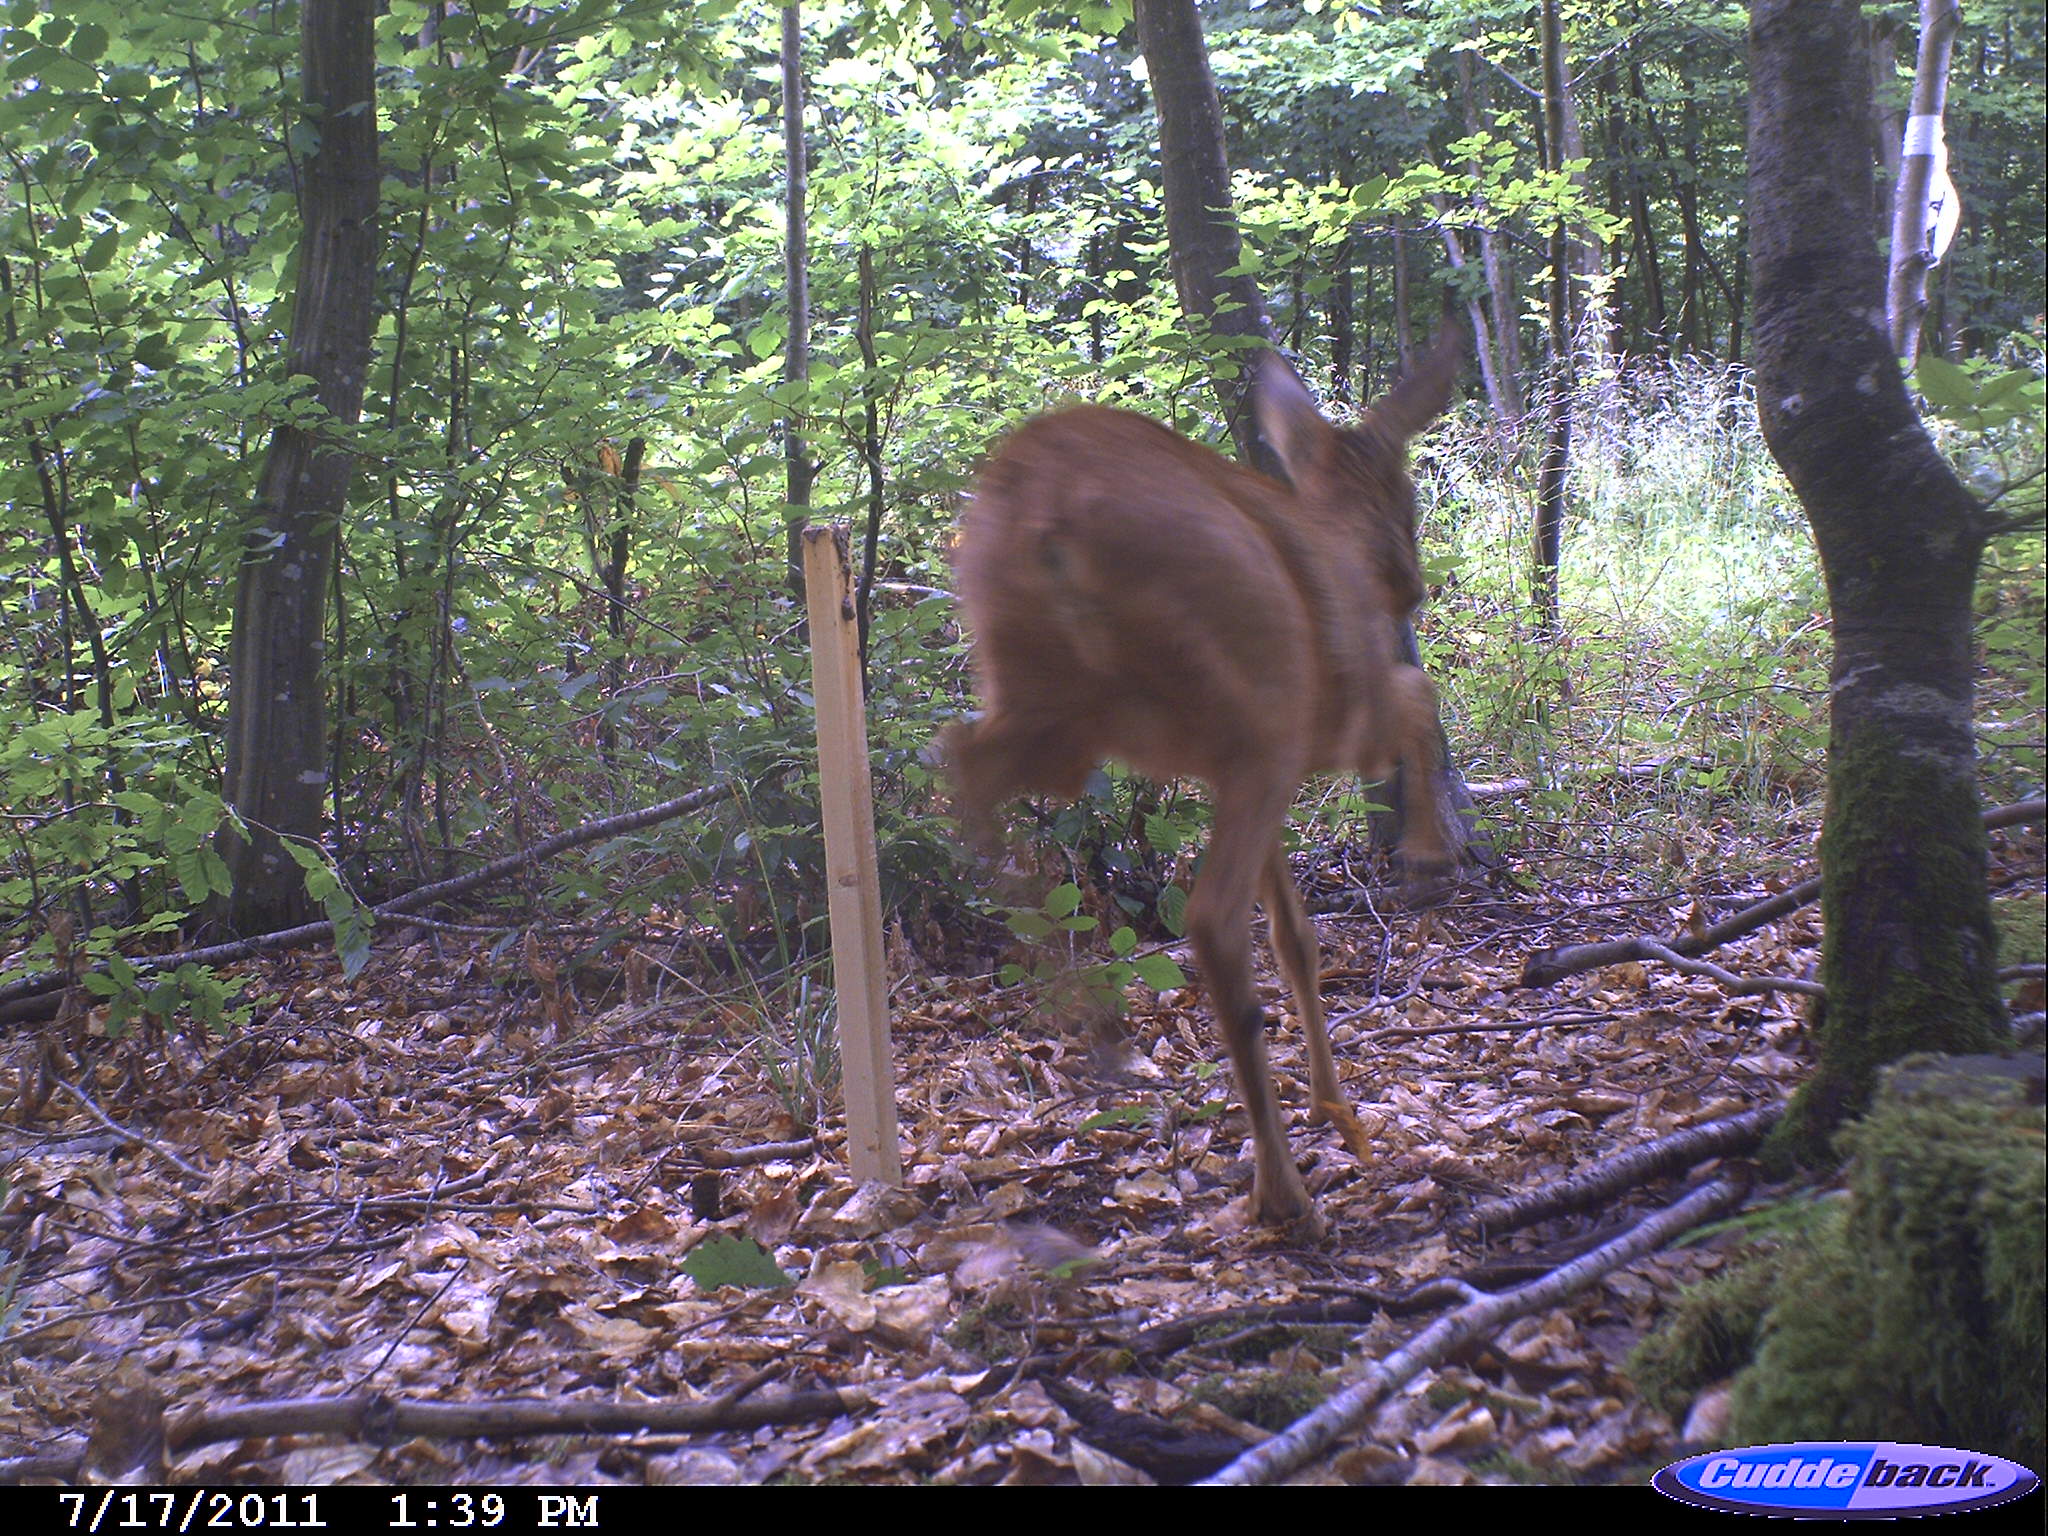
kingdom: Animalia
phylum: Chordata
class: Mammalia
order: Artiodactyla
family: Cervidae
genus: Capreolus
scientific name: Capreolus capreolus
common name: Western roe deer
